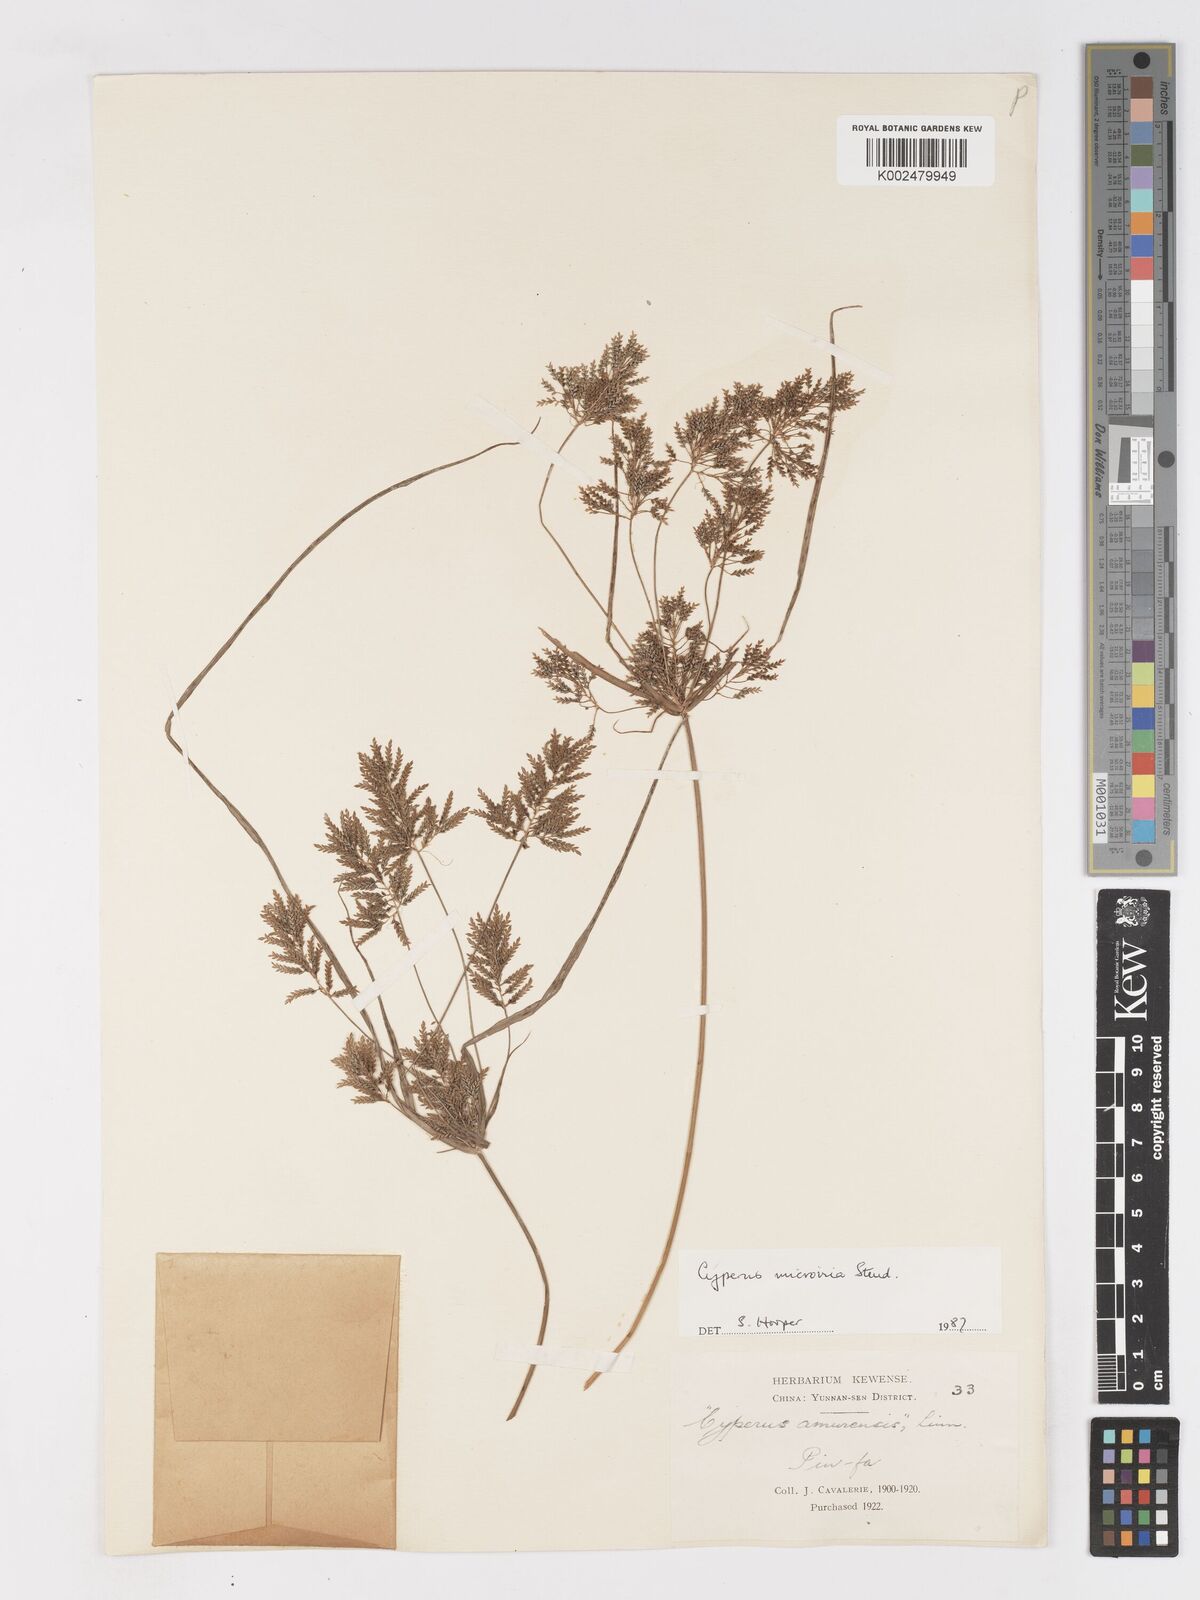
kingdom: Plantae
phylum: Tracheophyta
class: Liliopsida
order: Poales
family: Cyperaceae
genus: Cyperus
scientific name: Cyperus microiria
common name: Asian flatsedge
